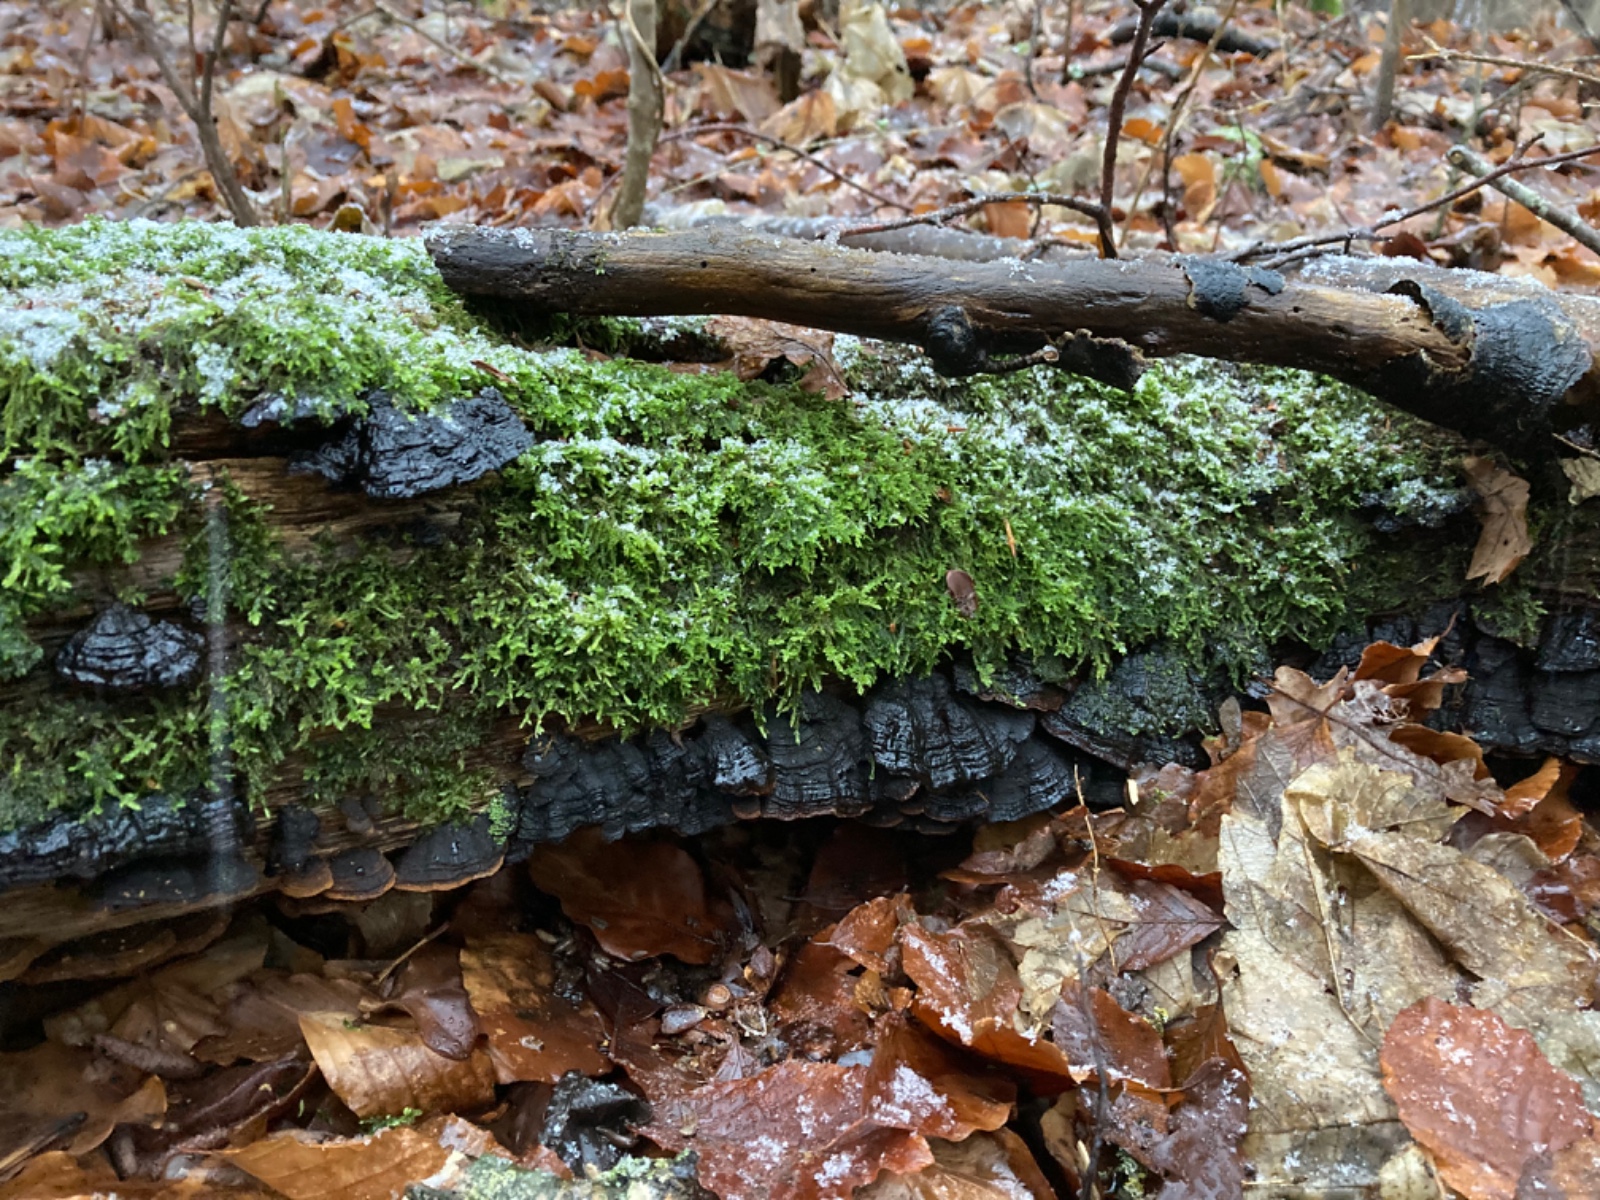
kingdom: Fungi
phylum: Basidiomycota
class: Agaricomycetes
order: Hymenochaetales
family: Hymenochaetaceae
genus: Hymenochaete
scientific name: Hymenochaete rubiginosa
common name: stiv ruslædersvamp
